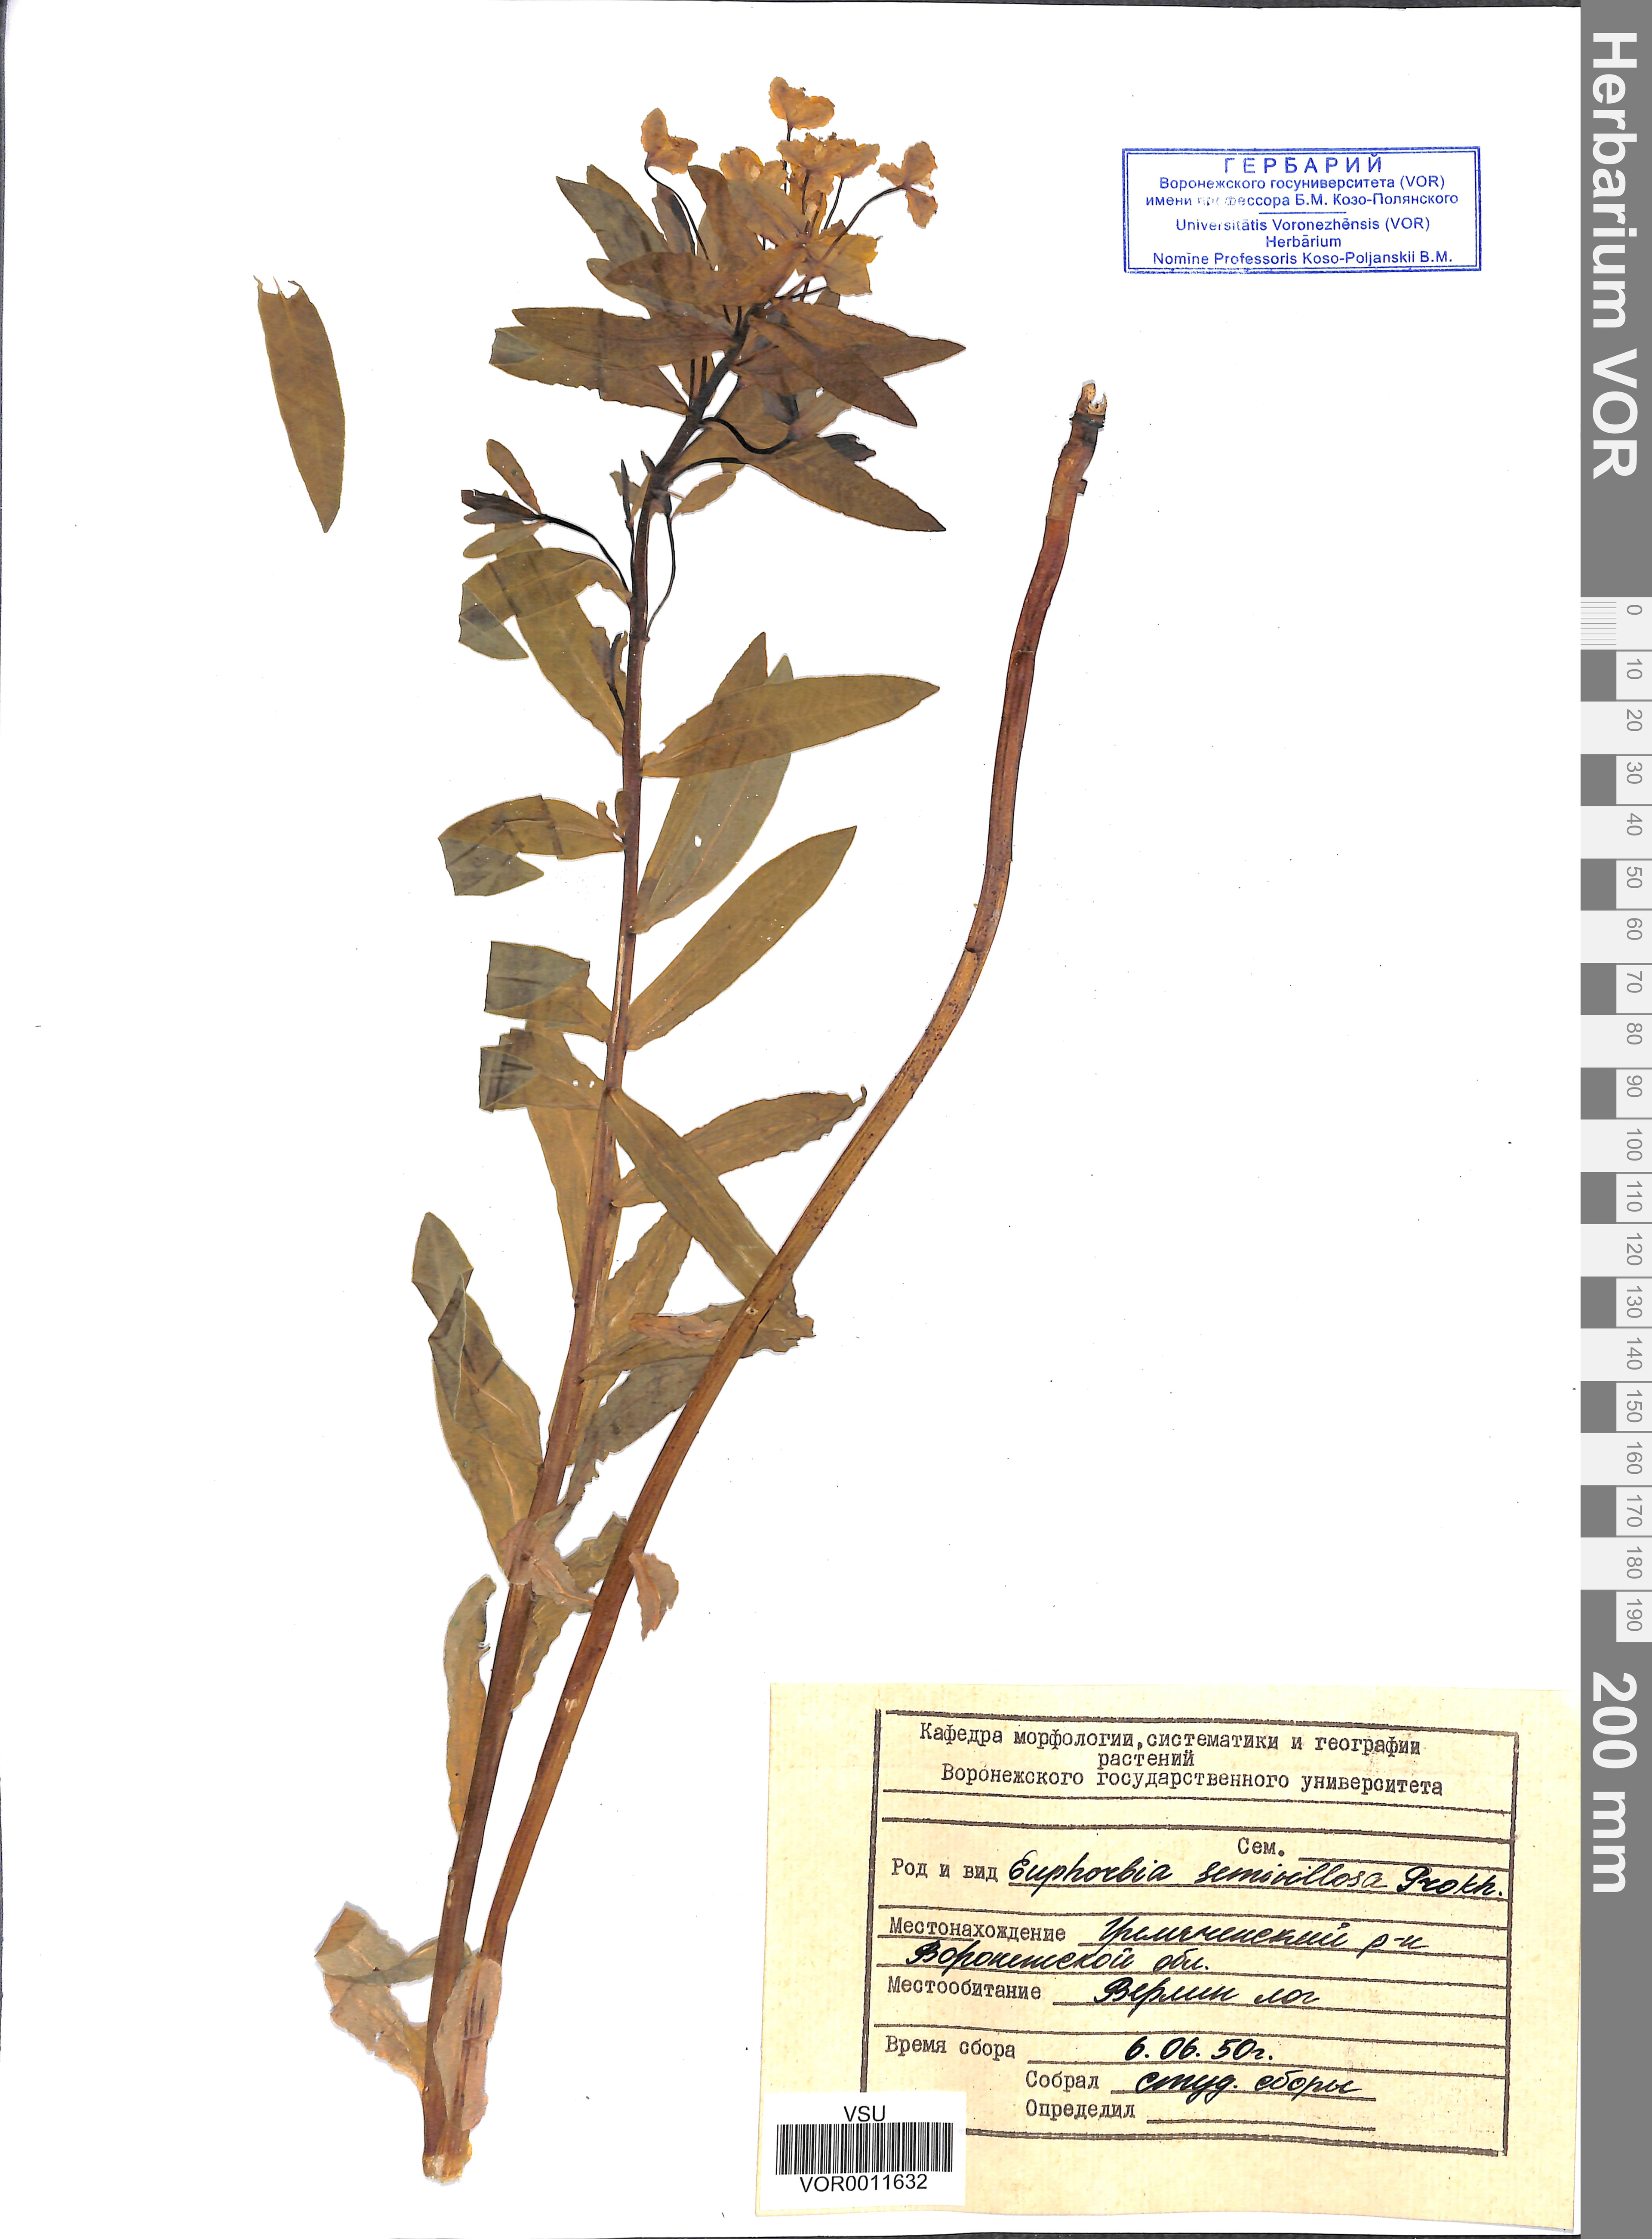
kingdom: Plantae
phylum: Tracheophyta
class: Magnoliopsida
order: Malpighiales
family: Euphorbiaceae
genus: Euphorbia
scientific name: Euphorbia semivillosa
